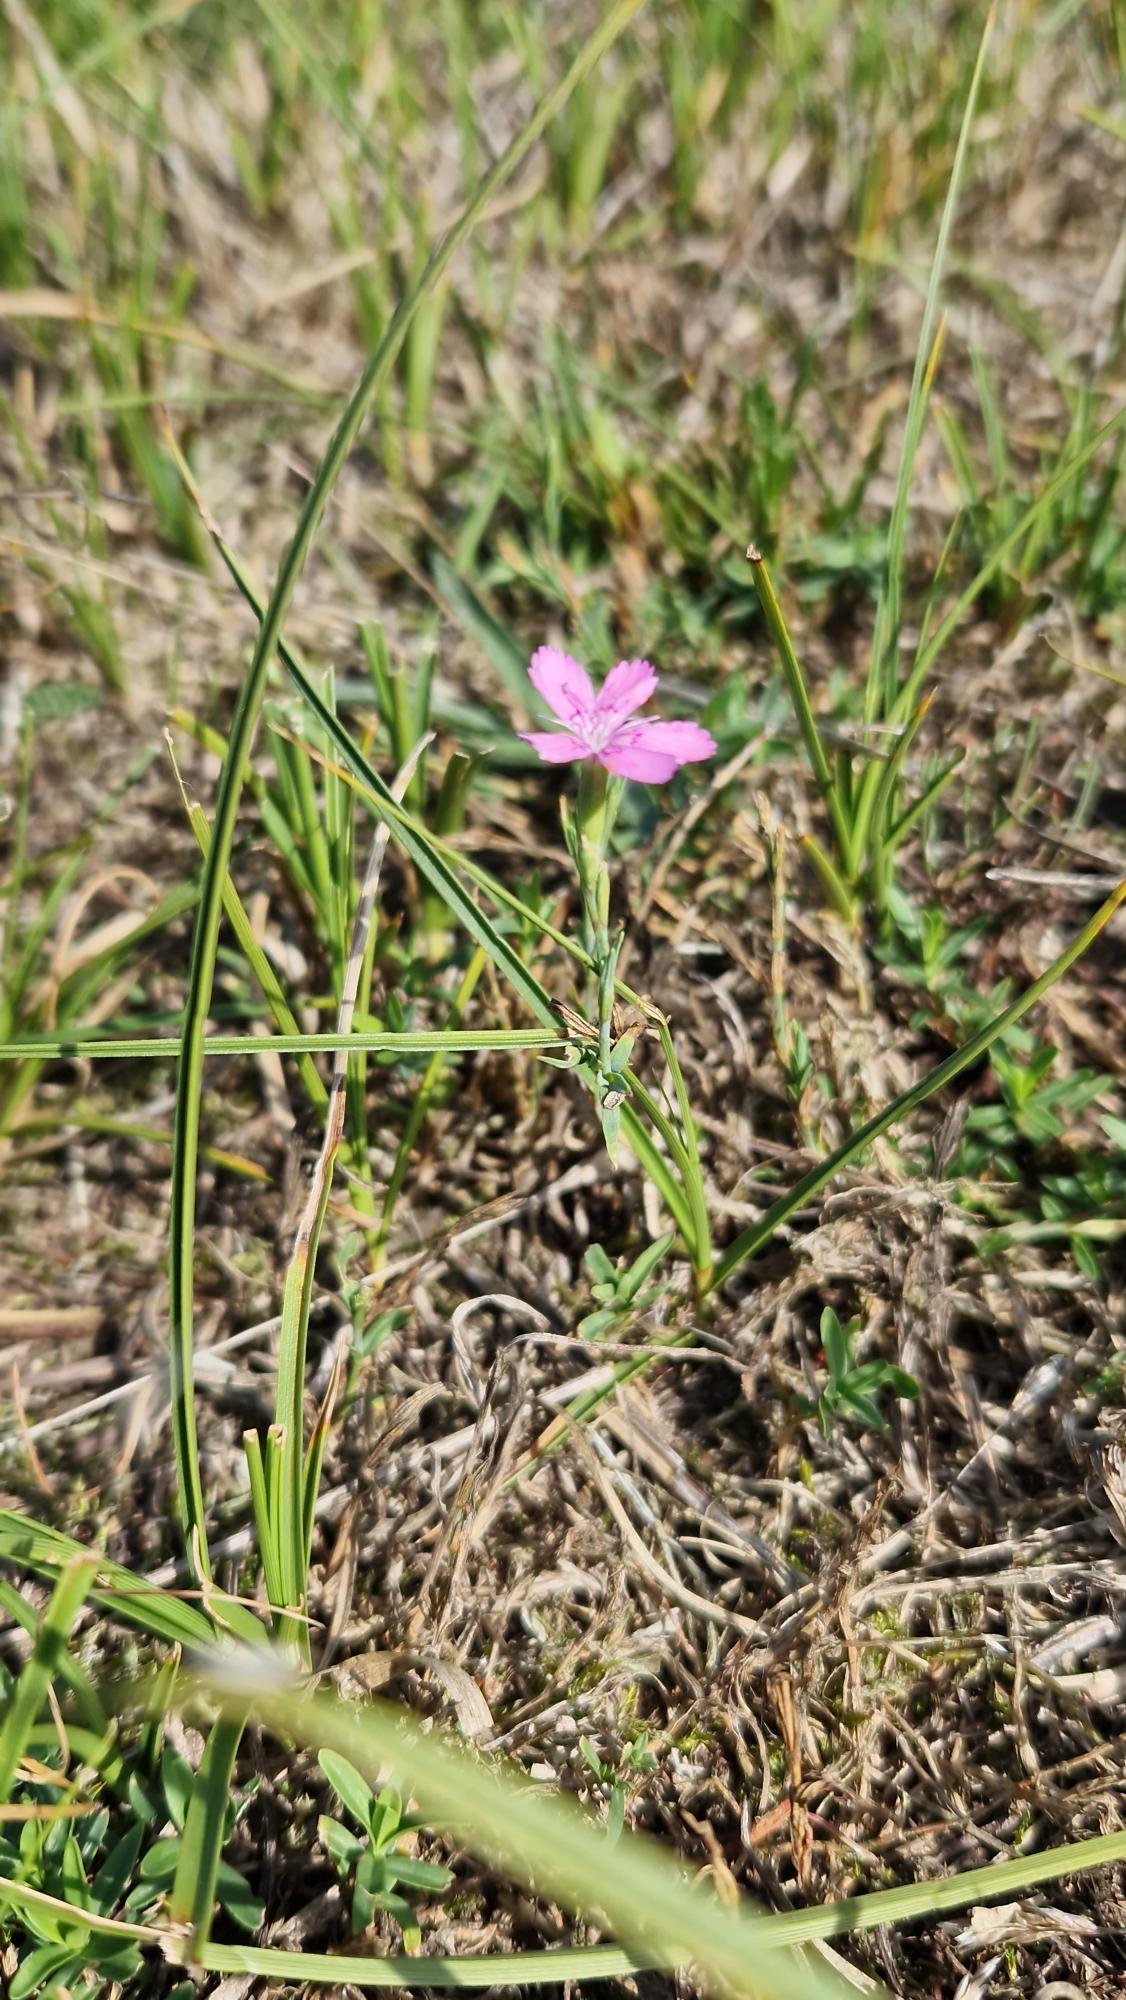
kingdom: Plantae
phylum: Tracheophyta
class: Magnoliopsida
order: Caryophyllales
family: Caryophyllaceae
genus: Dianthus
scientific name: Dianthus deltoides
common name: Bakke-nellike
